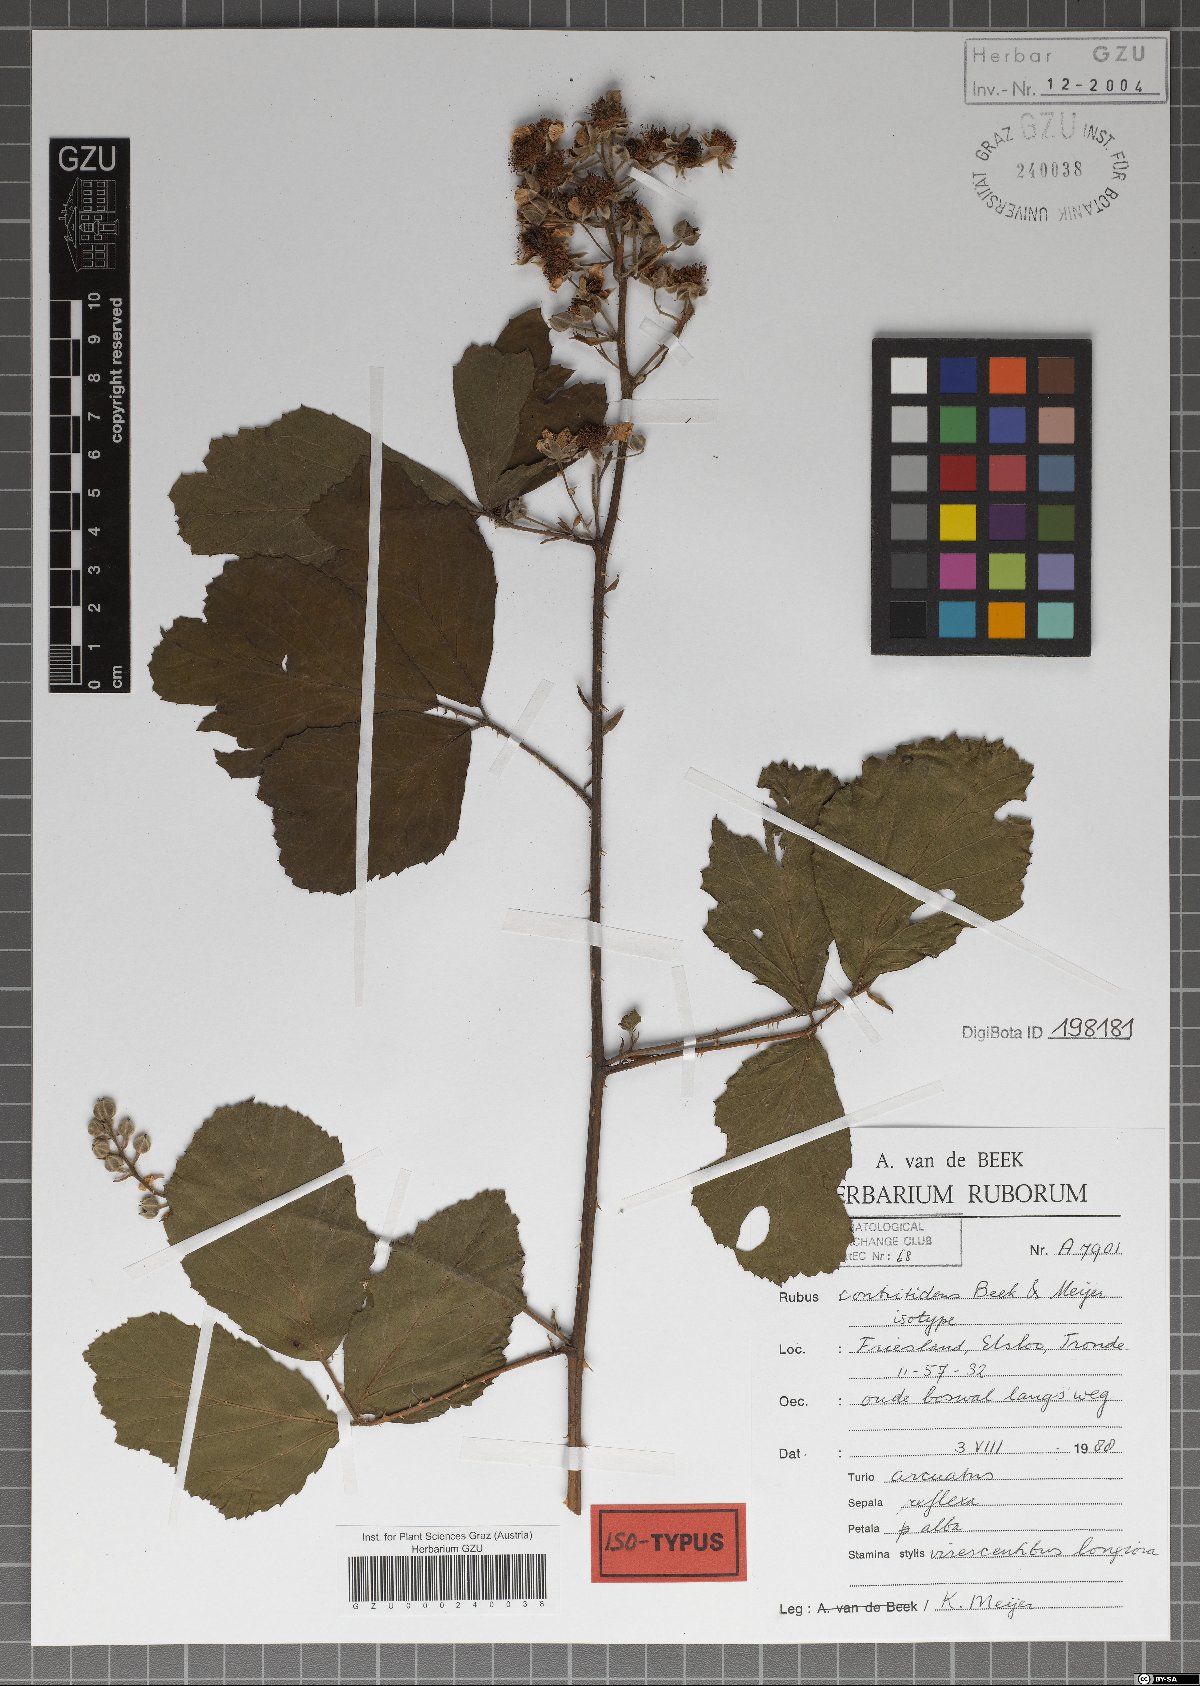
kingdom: Plantae
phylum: Tracheophyta
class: Magnoliopsida
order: Rosales
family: Rosaceae
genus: Rubus
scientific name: Rubus contritidens
